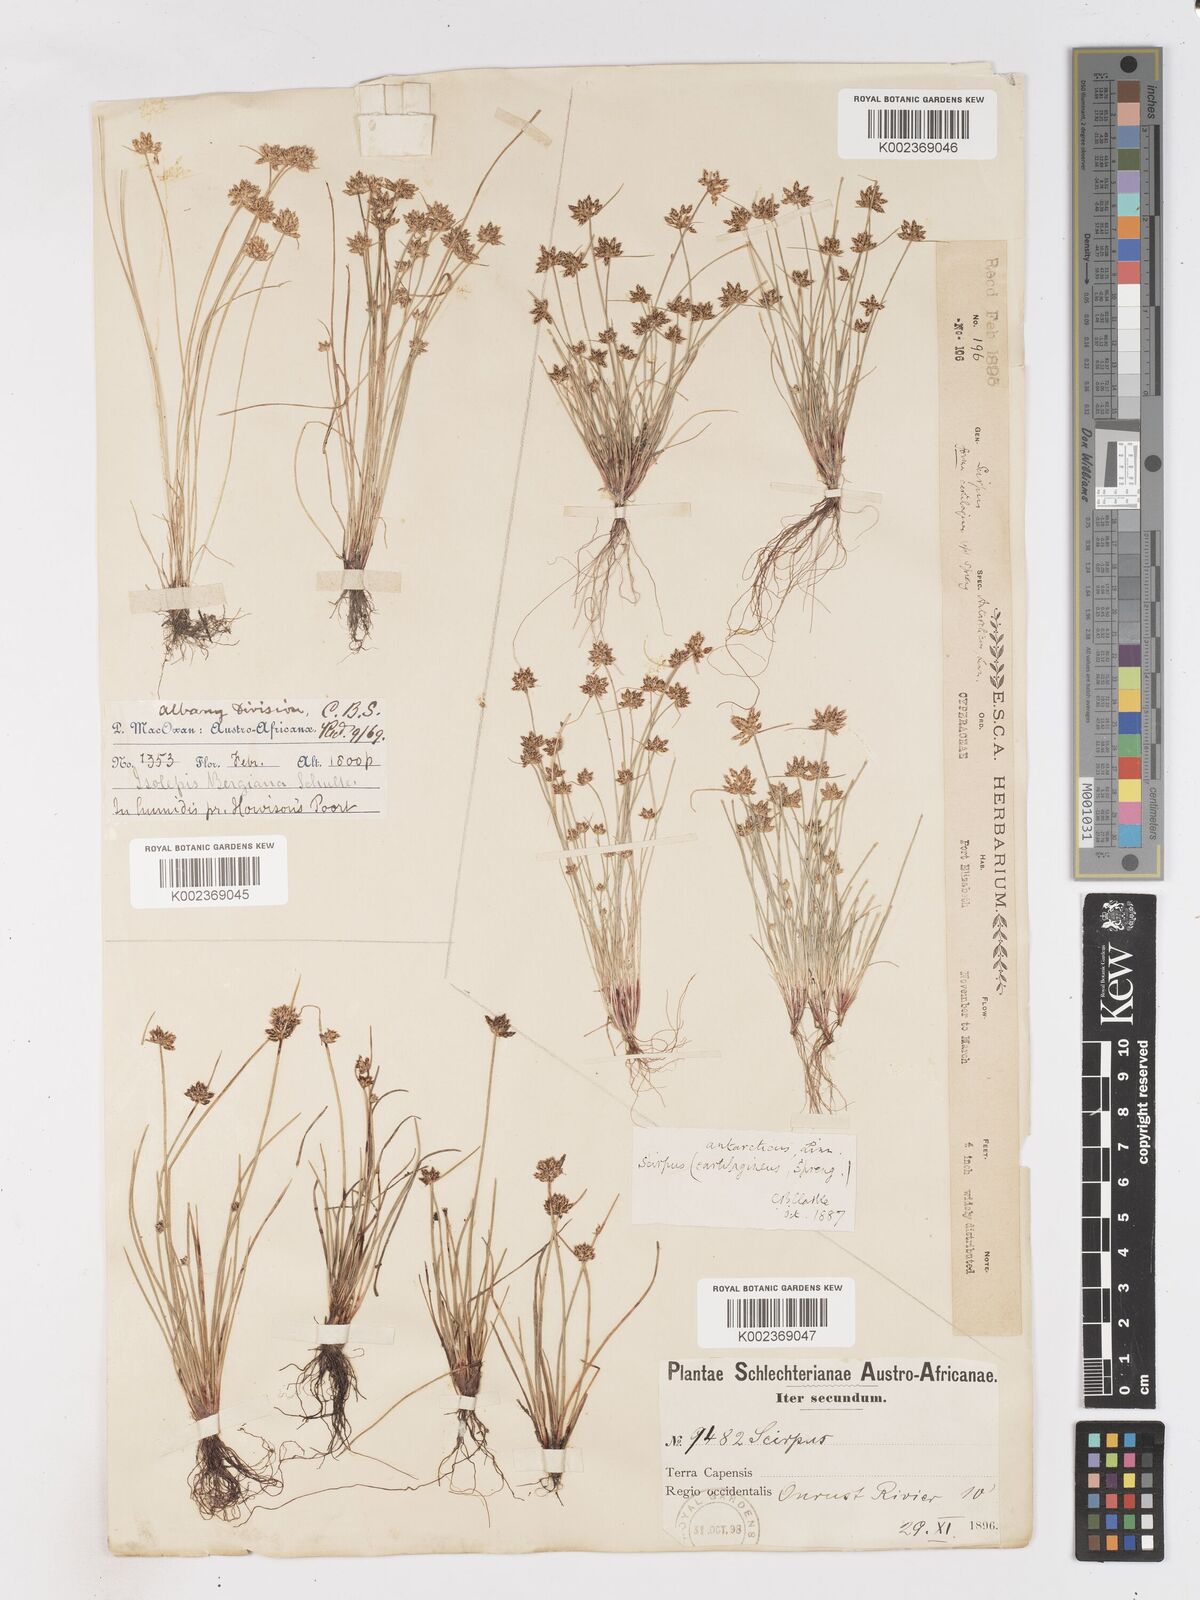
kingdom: Plantae
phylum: Tracheophyta
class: Liliopsida
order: Poales
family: Cyperaceae
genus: Isolepis
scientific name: Isolepis diabolica
